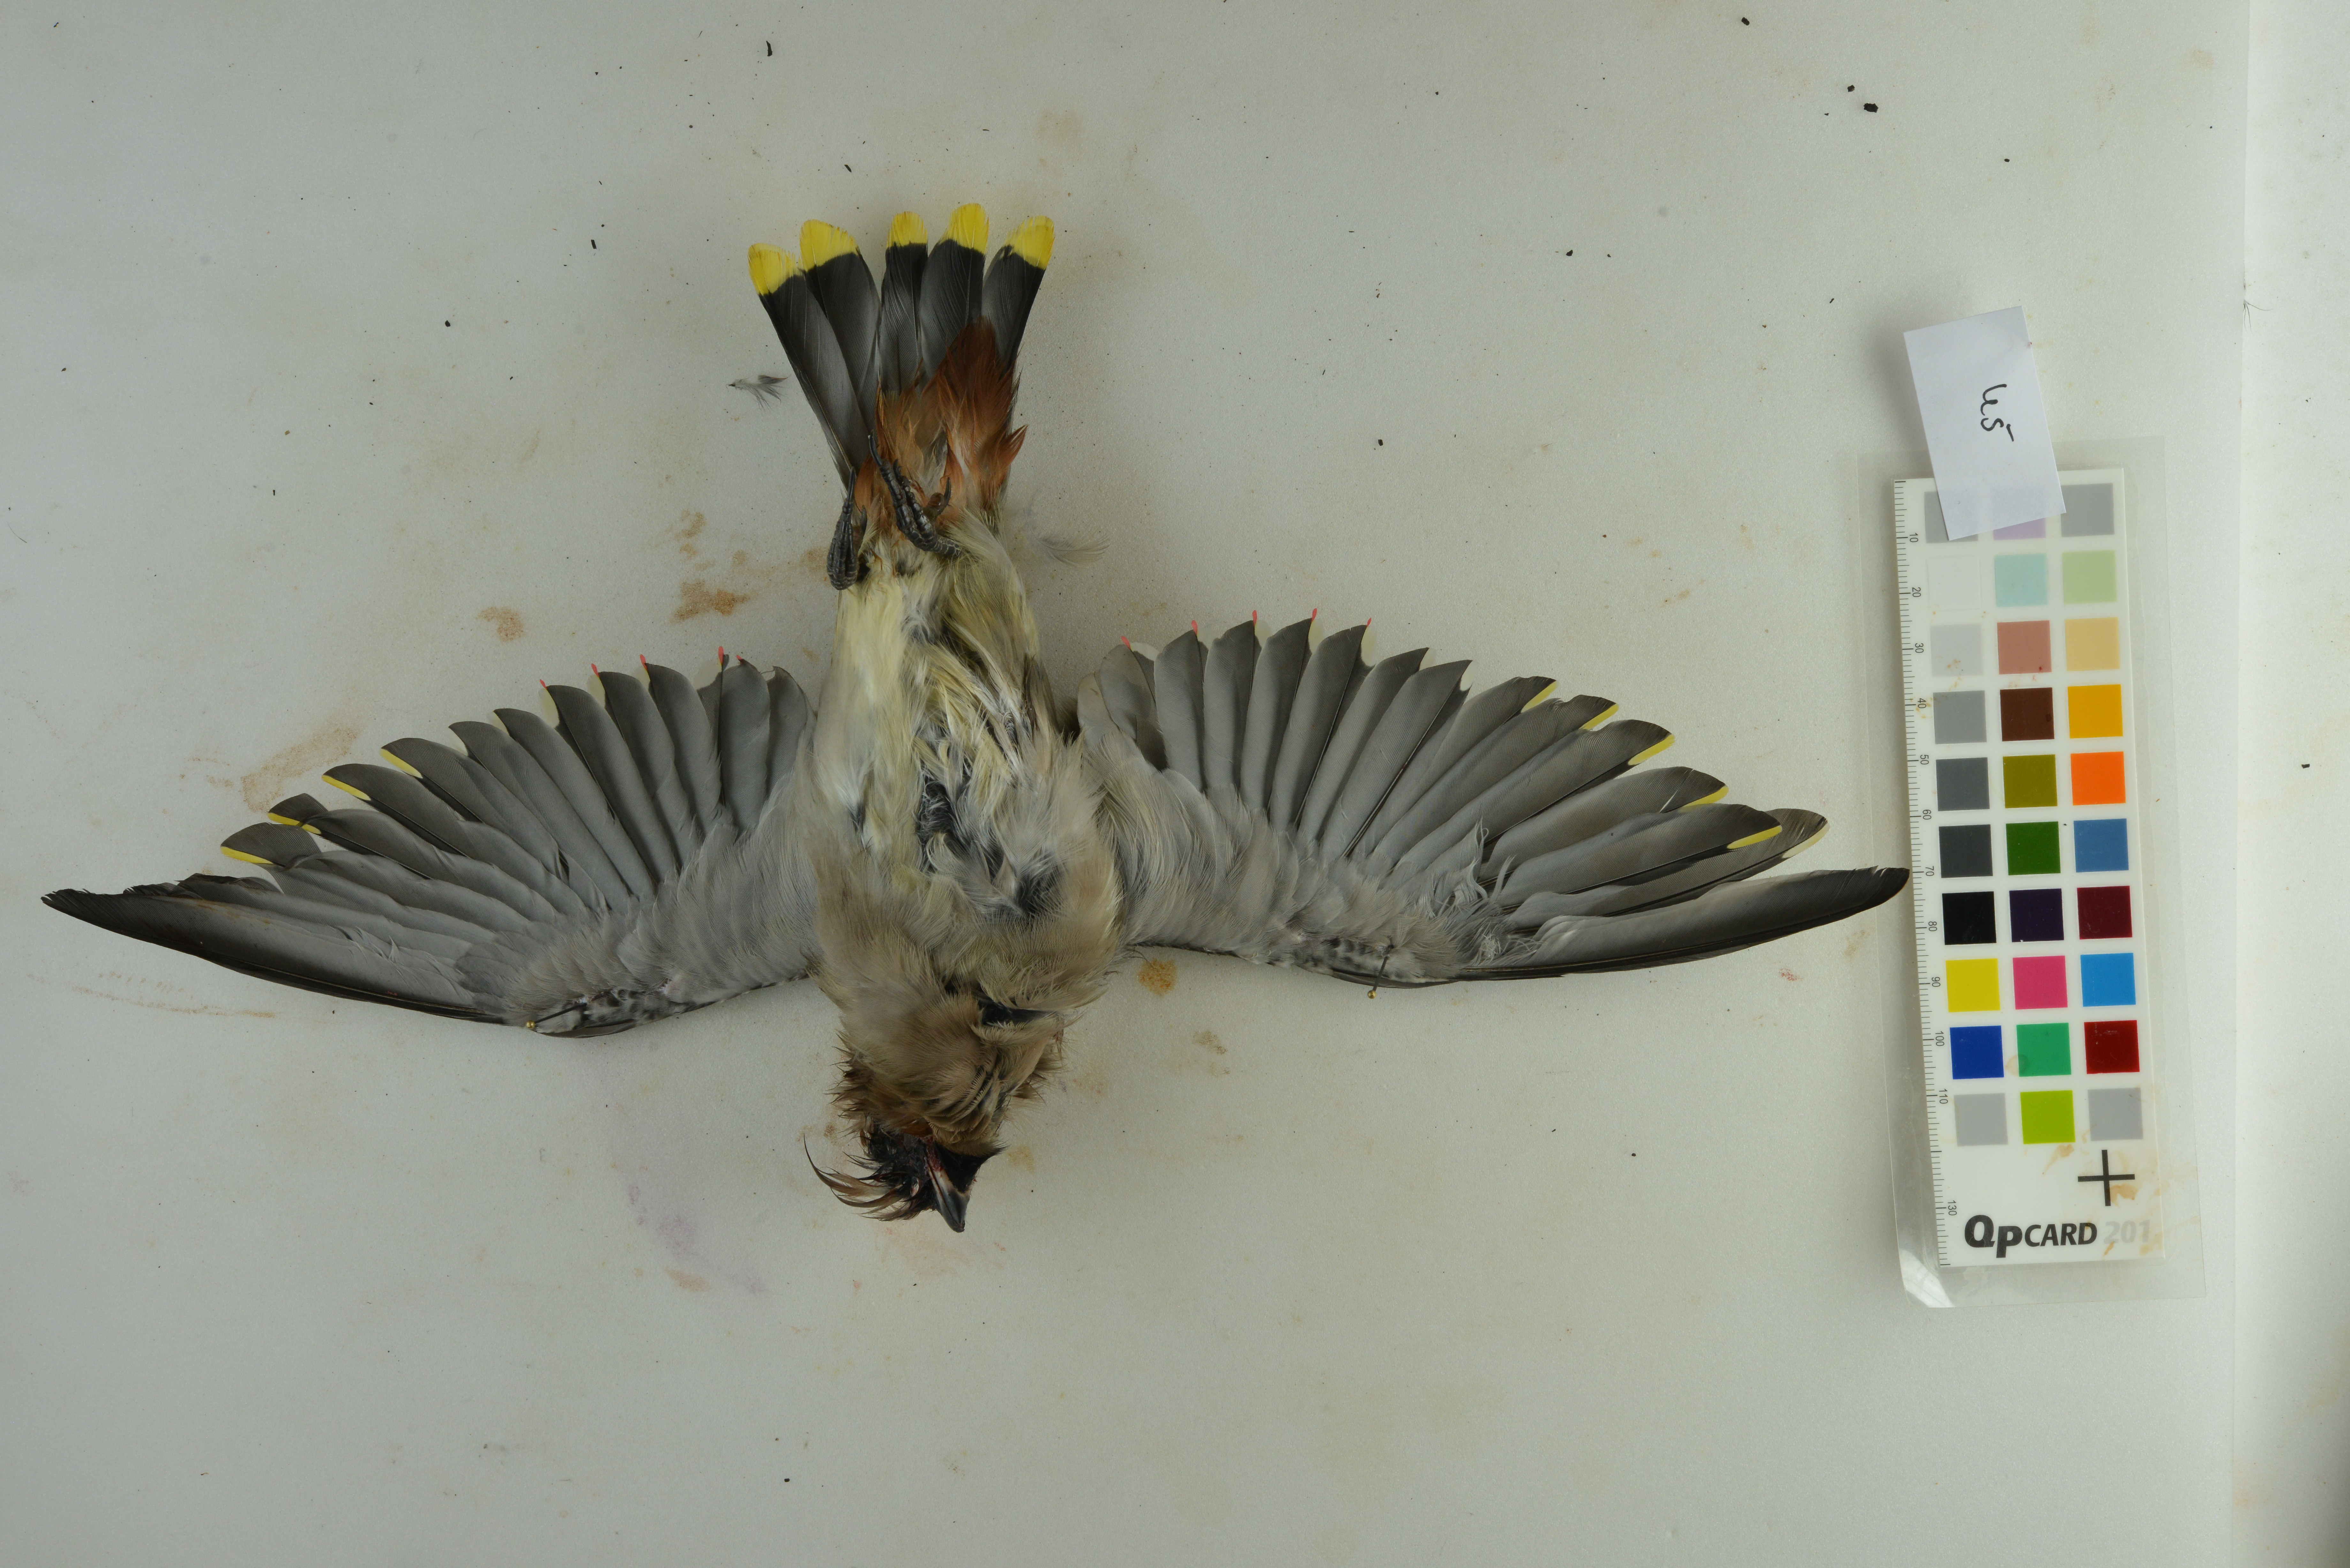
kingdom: Animalia
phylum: Chordata
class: Aves
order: Passeriformes
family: Bombycillidae
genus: Bombycilla
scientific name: Bombycilla garrulus
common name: Bohemian waxwing
